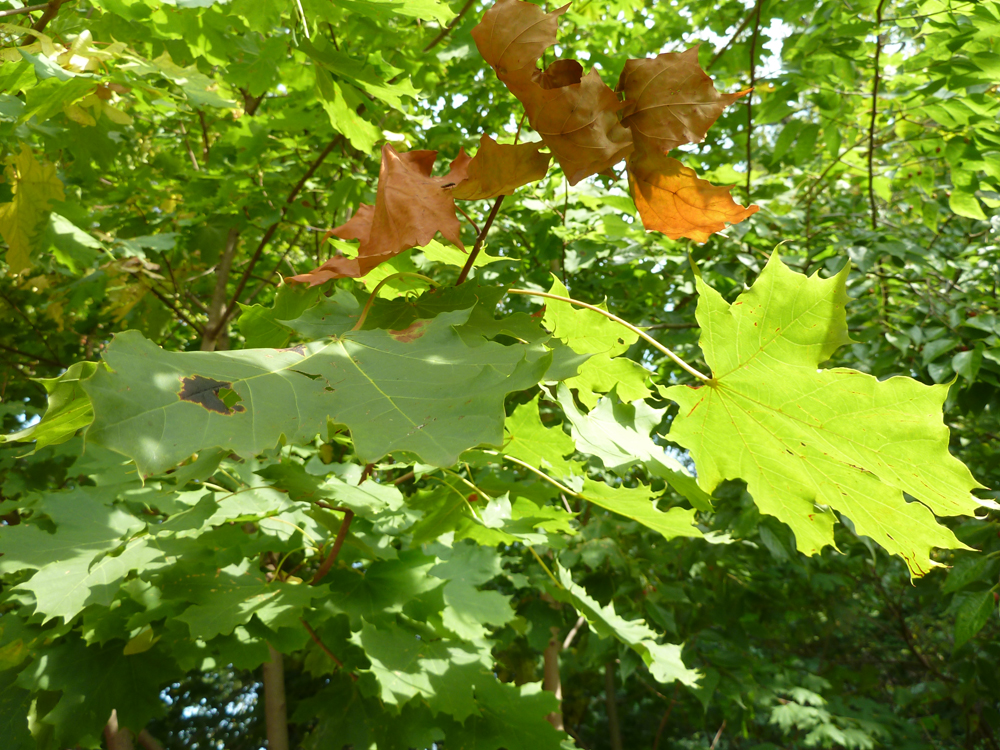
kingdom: Plantae
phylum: Tracheophyta
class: Magnoliopsida
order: Sapindales
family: Sapindaceae
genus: Acer
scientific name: Acer platanoides
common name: Norway maple
